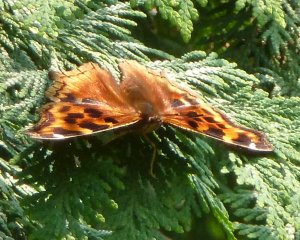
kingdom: Animalia
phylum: Arthropoda
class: Insecta
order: Lepidoptera
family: Nymphalidae
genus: Polygonia
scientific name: Polygonia vaualbum
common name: Compton Tortoiseshell
